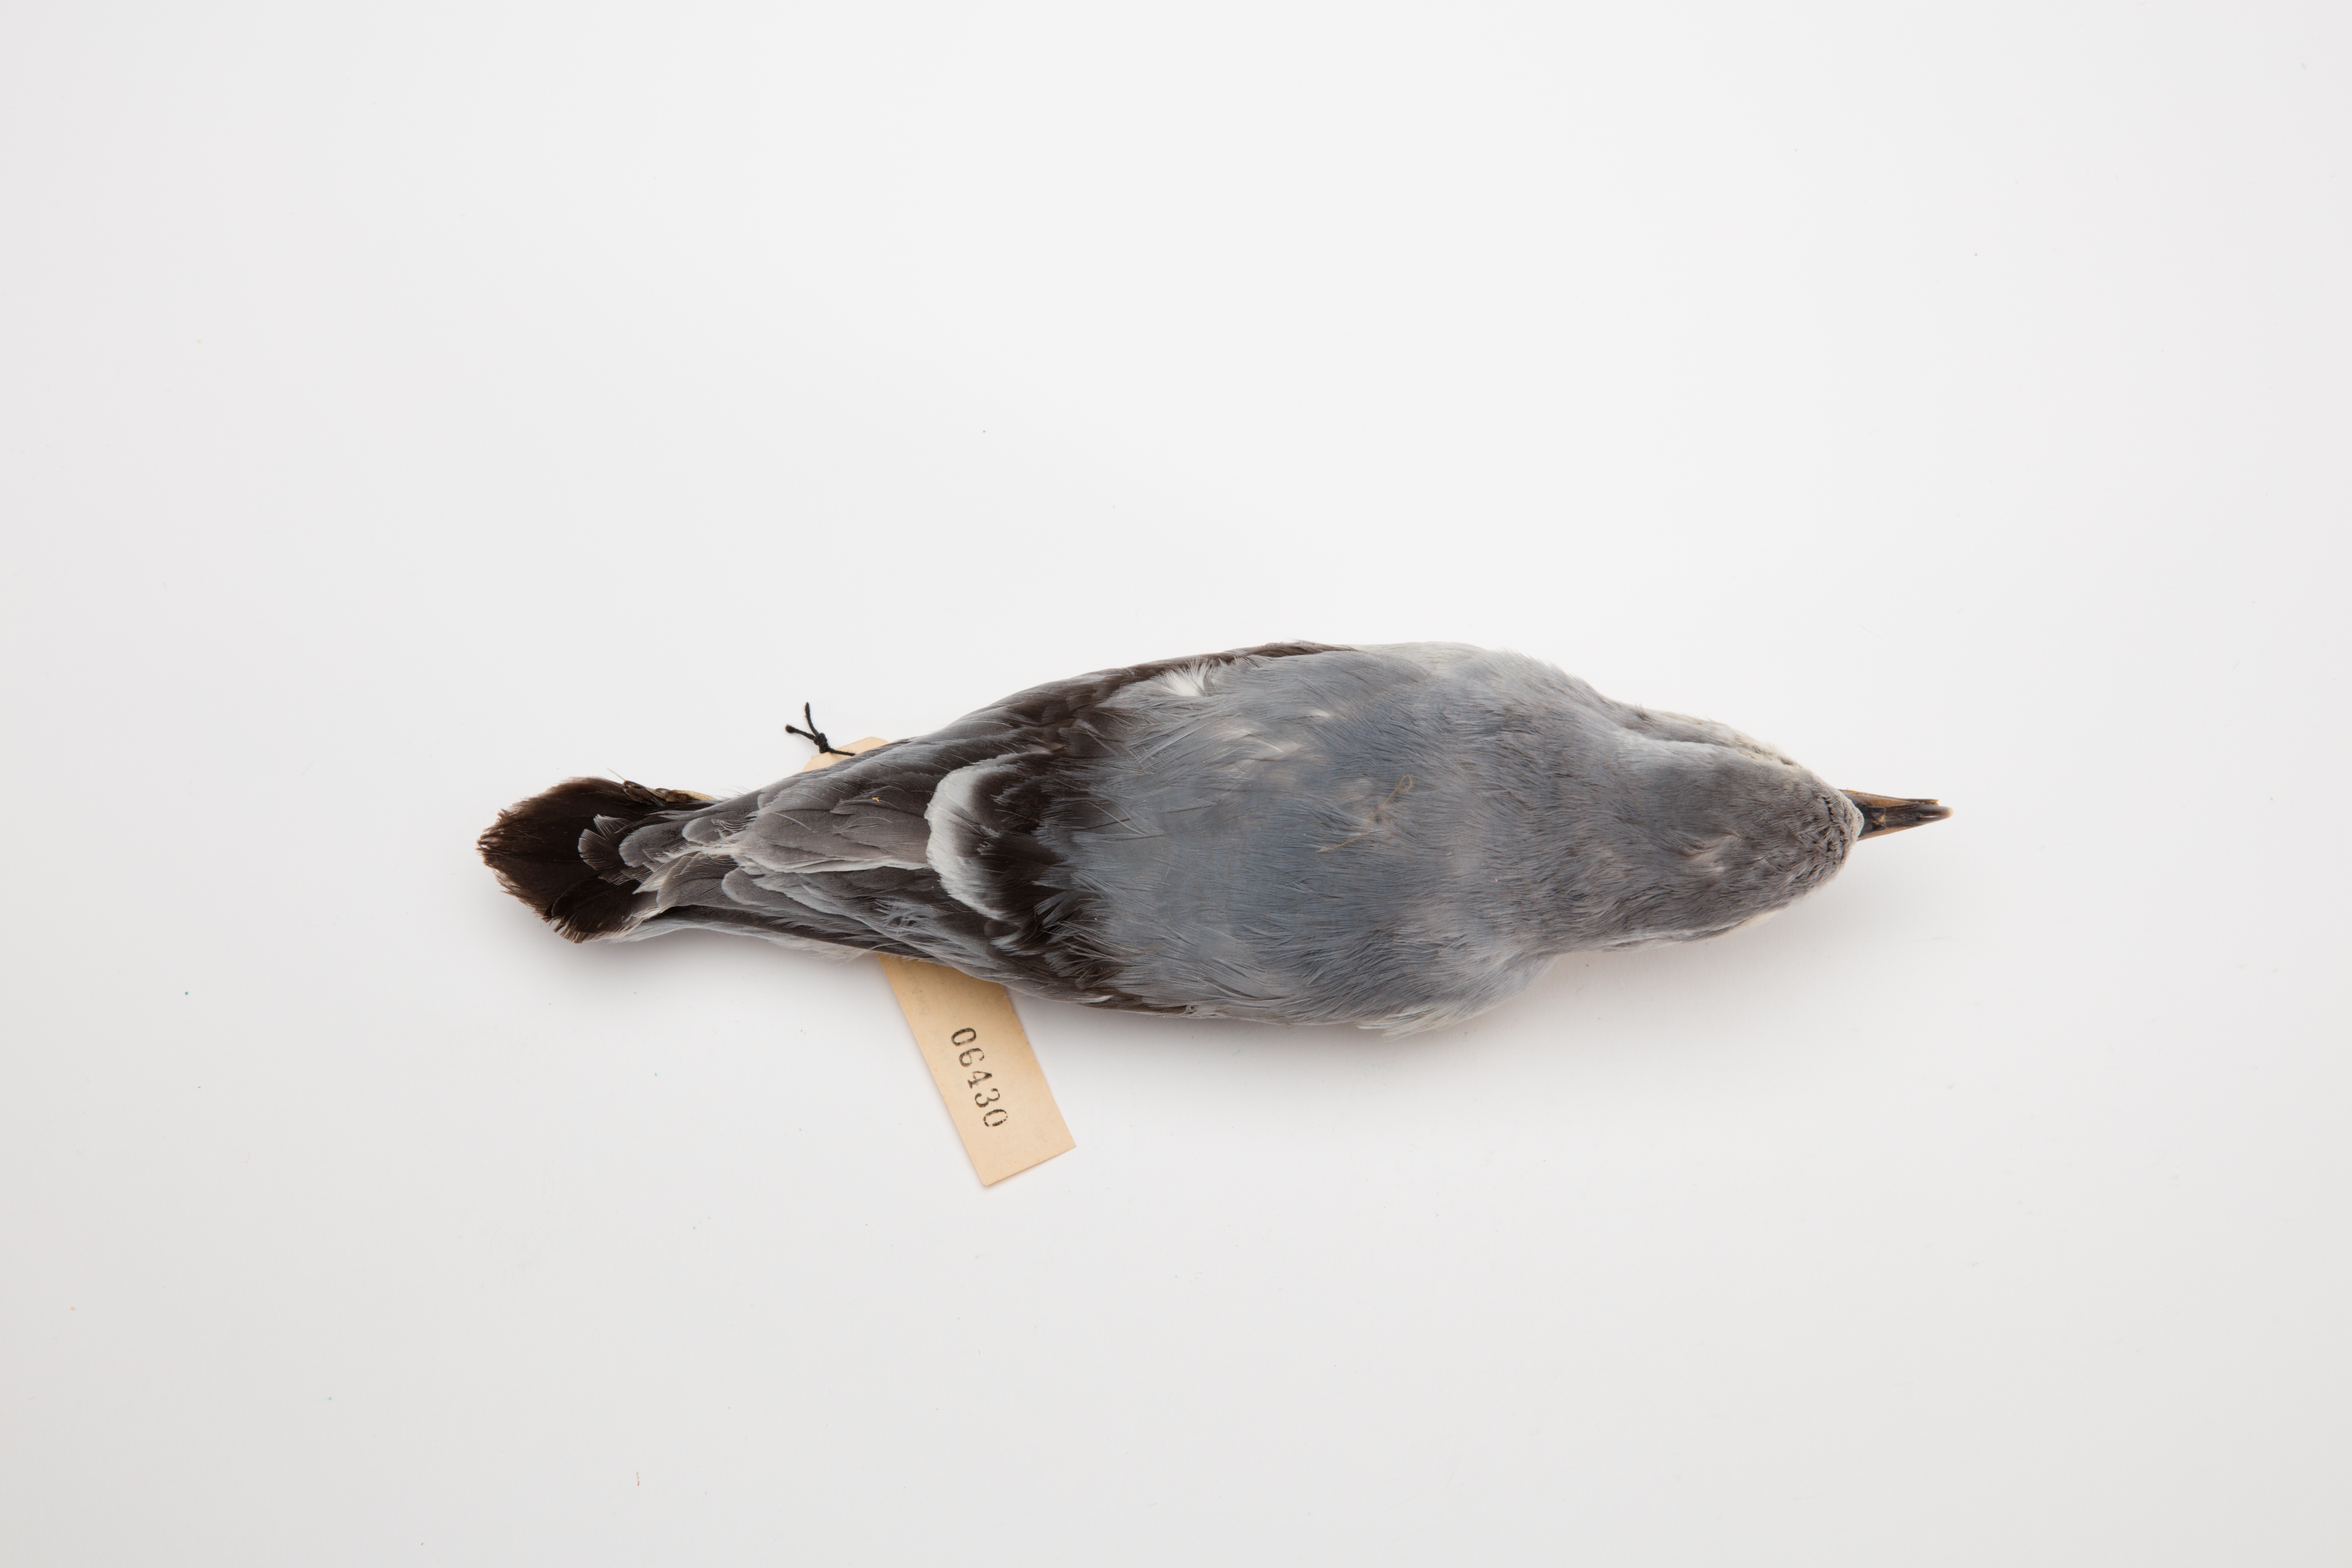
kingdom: Animalia
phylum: Chordata
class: Aves
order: Procellariiformes
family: Procellariidae
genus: Pachyptila
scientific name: Pachyptila turtur
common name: Fairy prion
